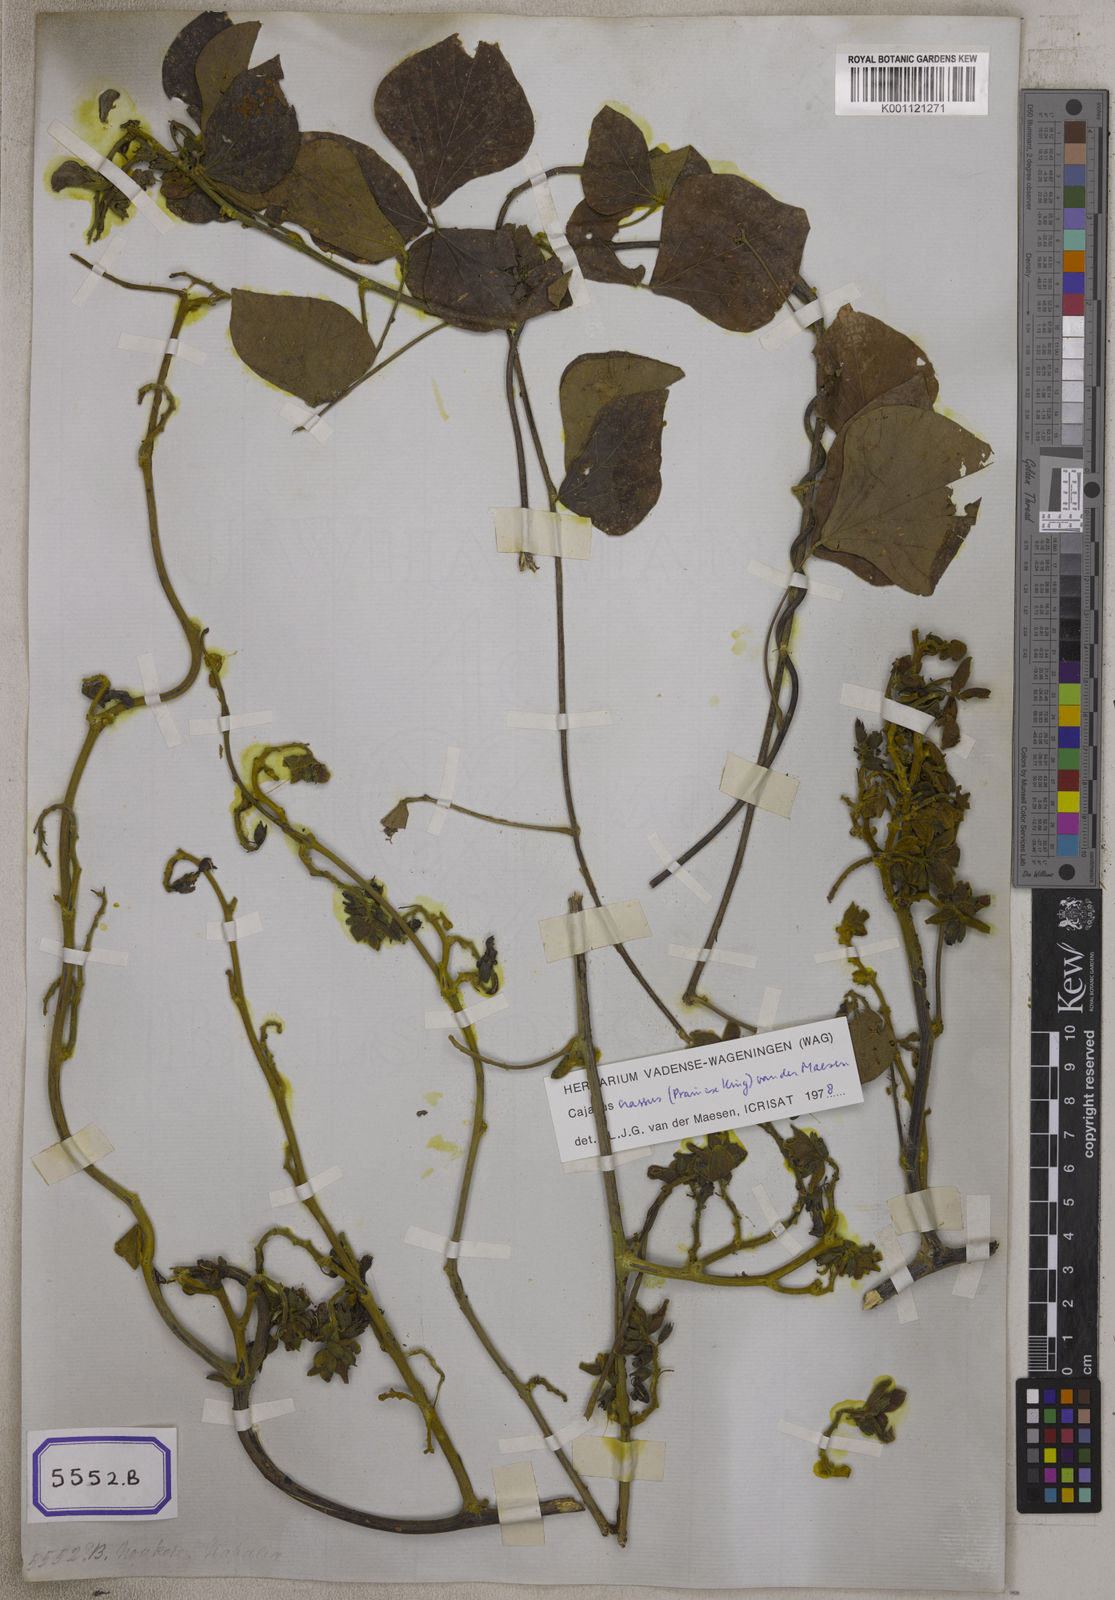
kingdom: Plantae
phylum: Tracheophyta
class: Magnoliopsida
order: Fabales
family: Fabaceae
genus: Dolichos
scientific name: Dolichos
